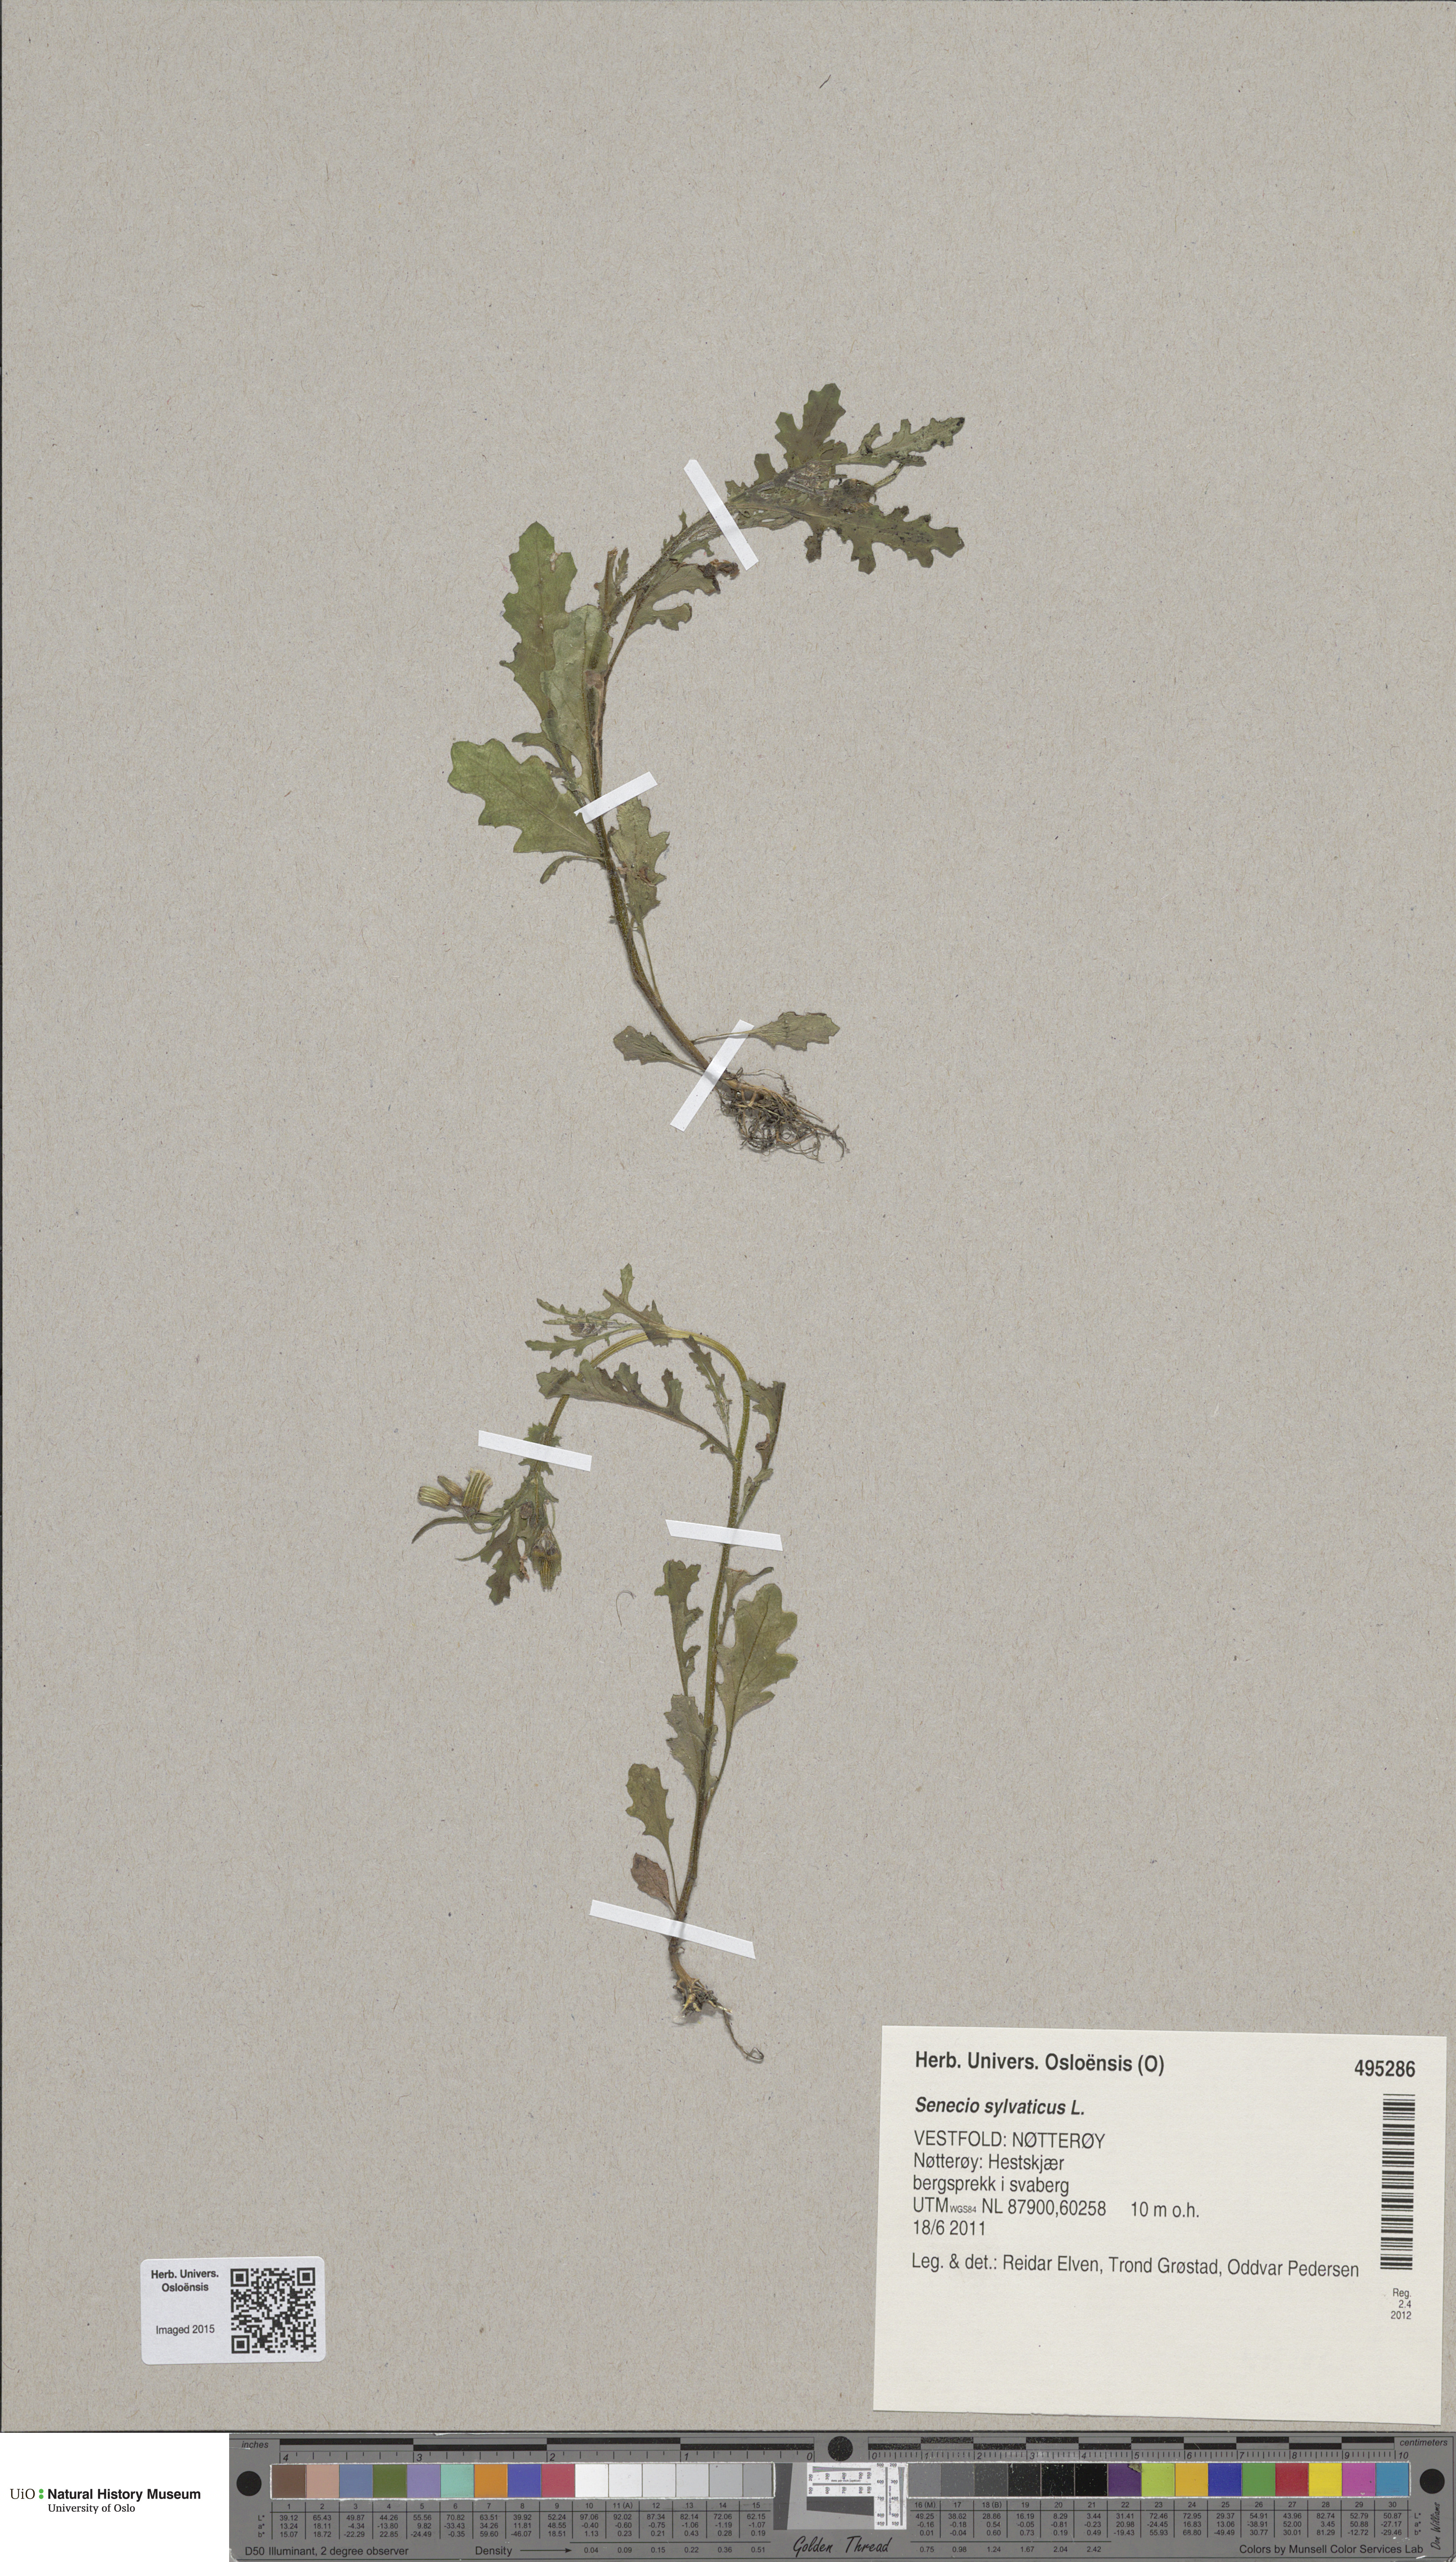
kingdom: Plantae
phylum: Tracheophyta
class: Magnoliopsida
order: Asterales
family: Asteraceae
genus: Senecio
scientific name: Senecio sylvaticus
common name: Woodland ragwort
